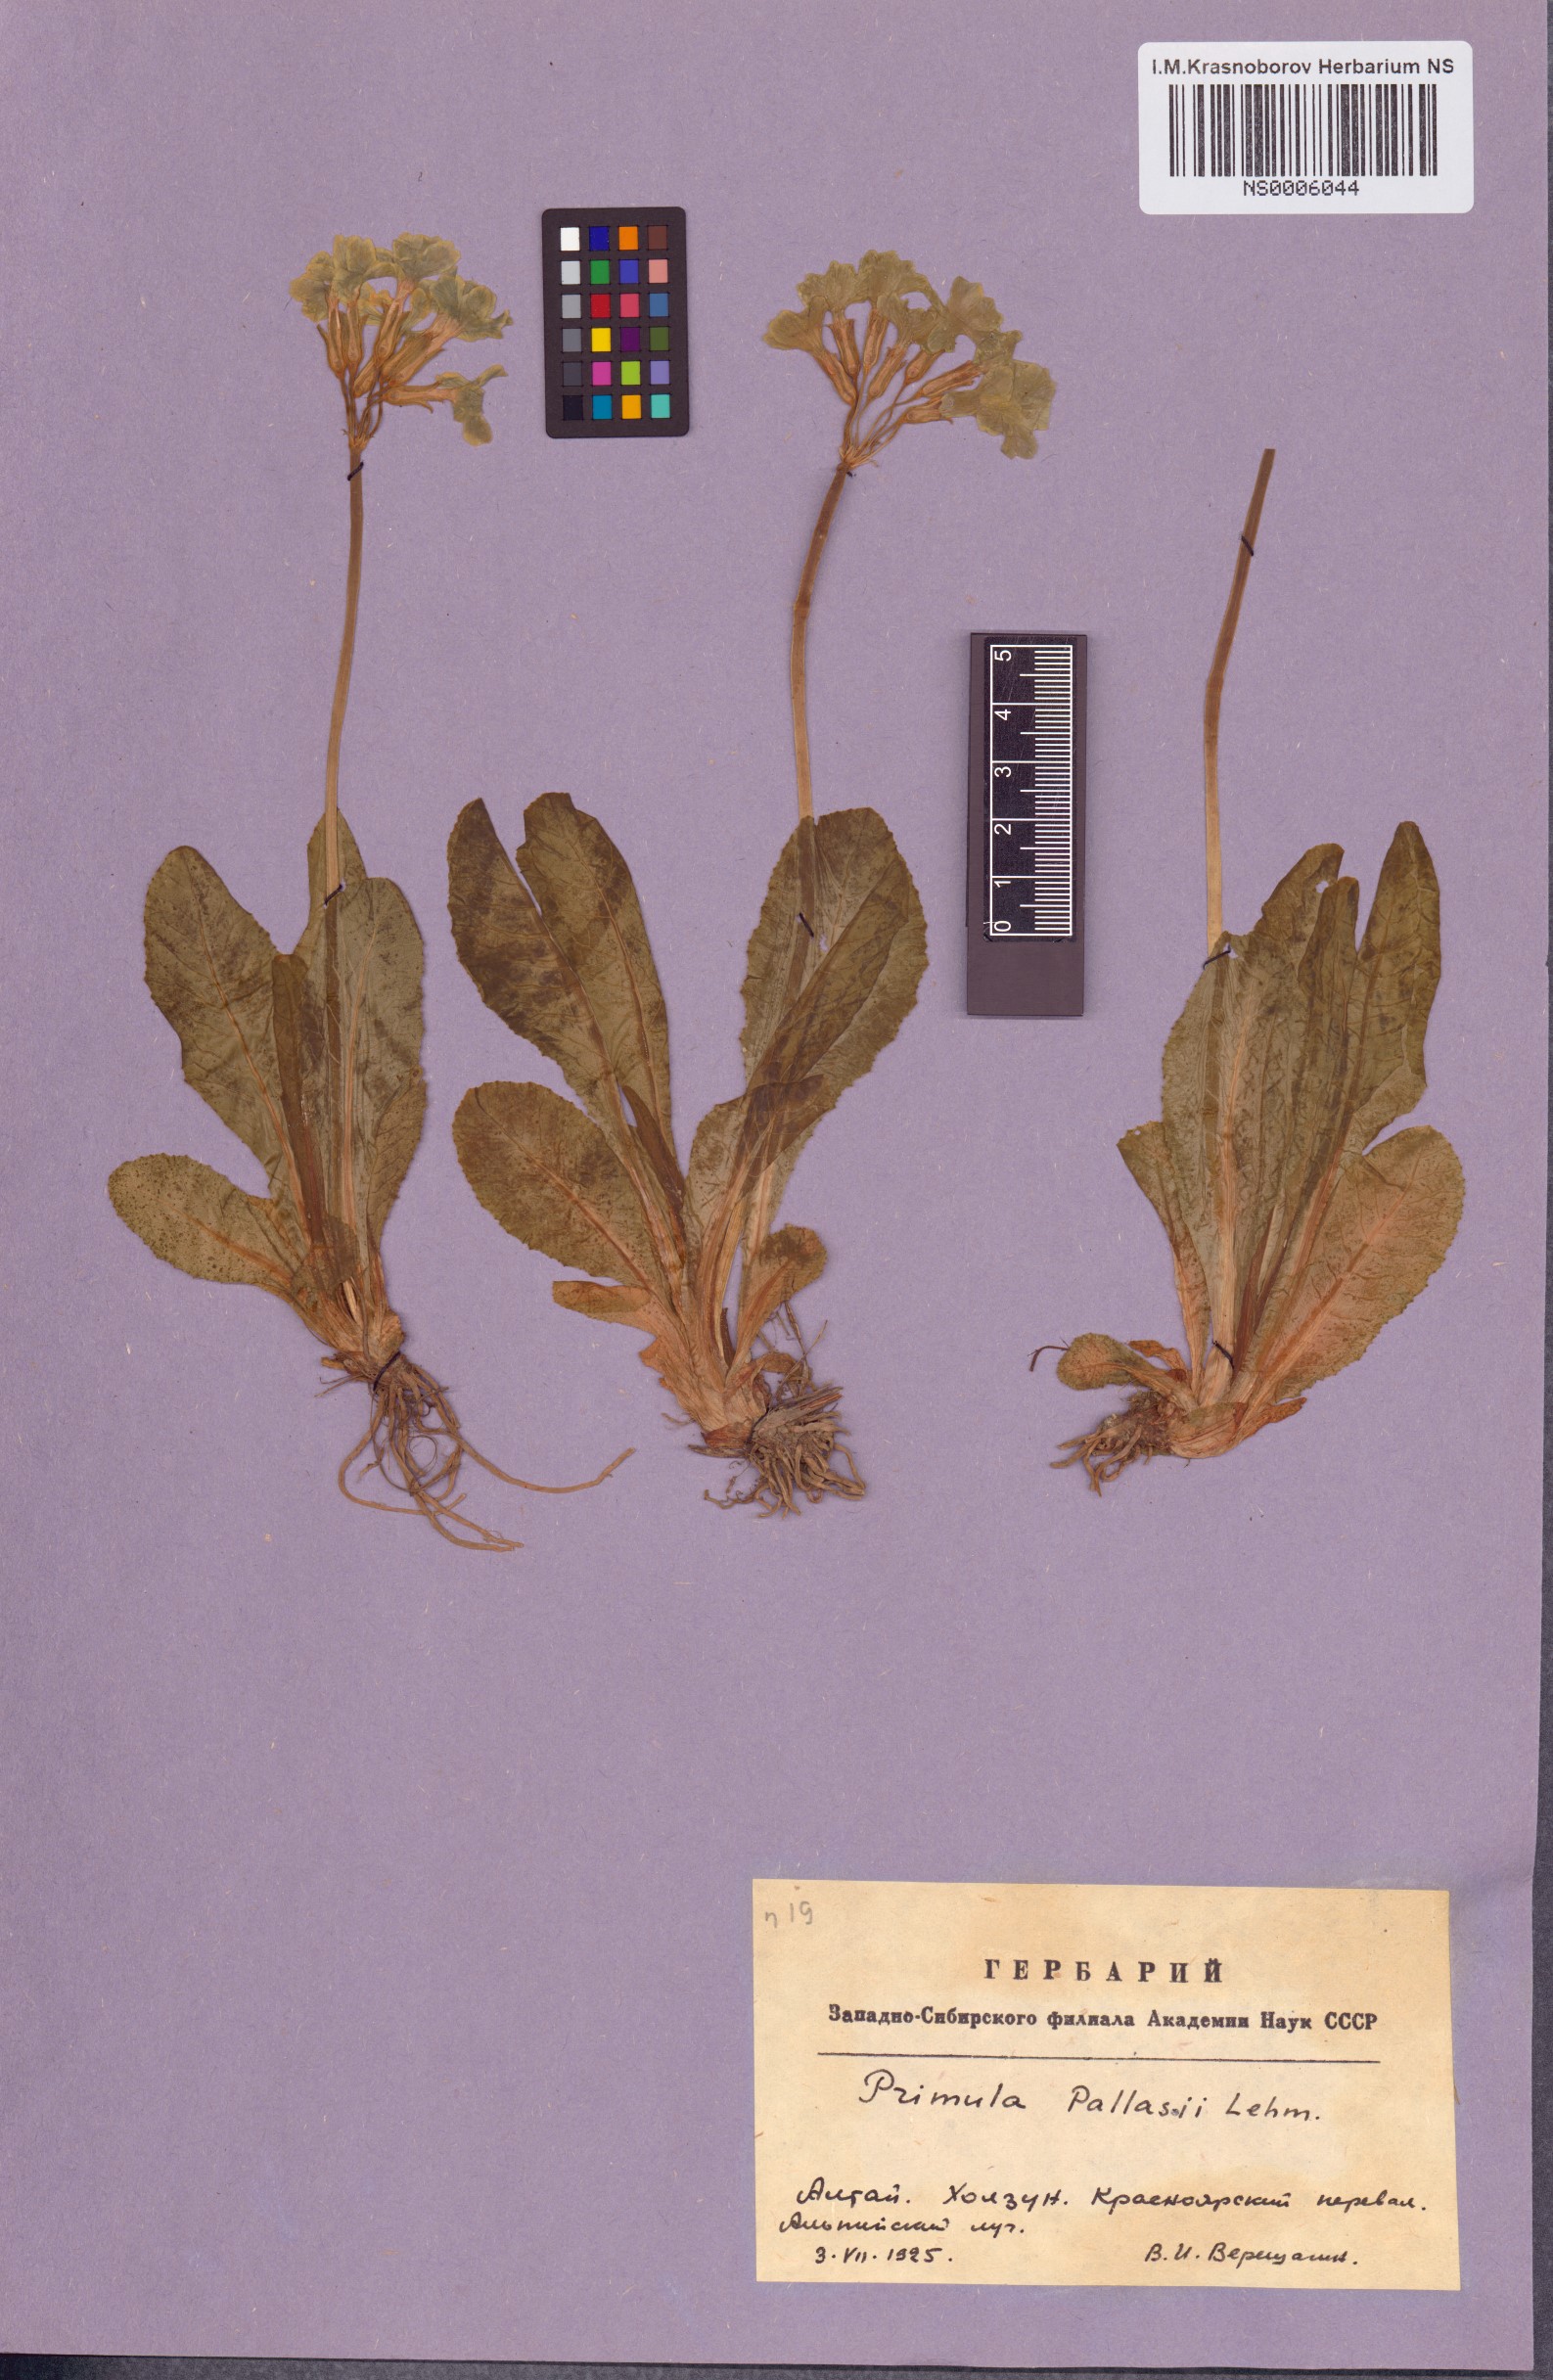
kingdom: Plantae
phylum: Tracheophyta
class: Magnoliopsida
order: Ericales
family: Primulaceae
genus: Primula
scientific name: Primula elatior
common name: Oxlip
